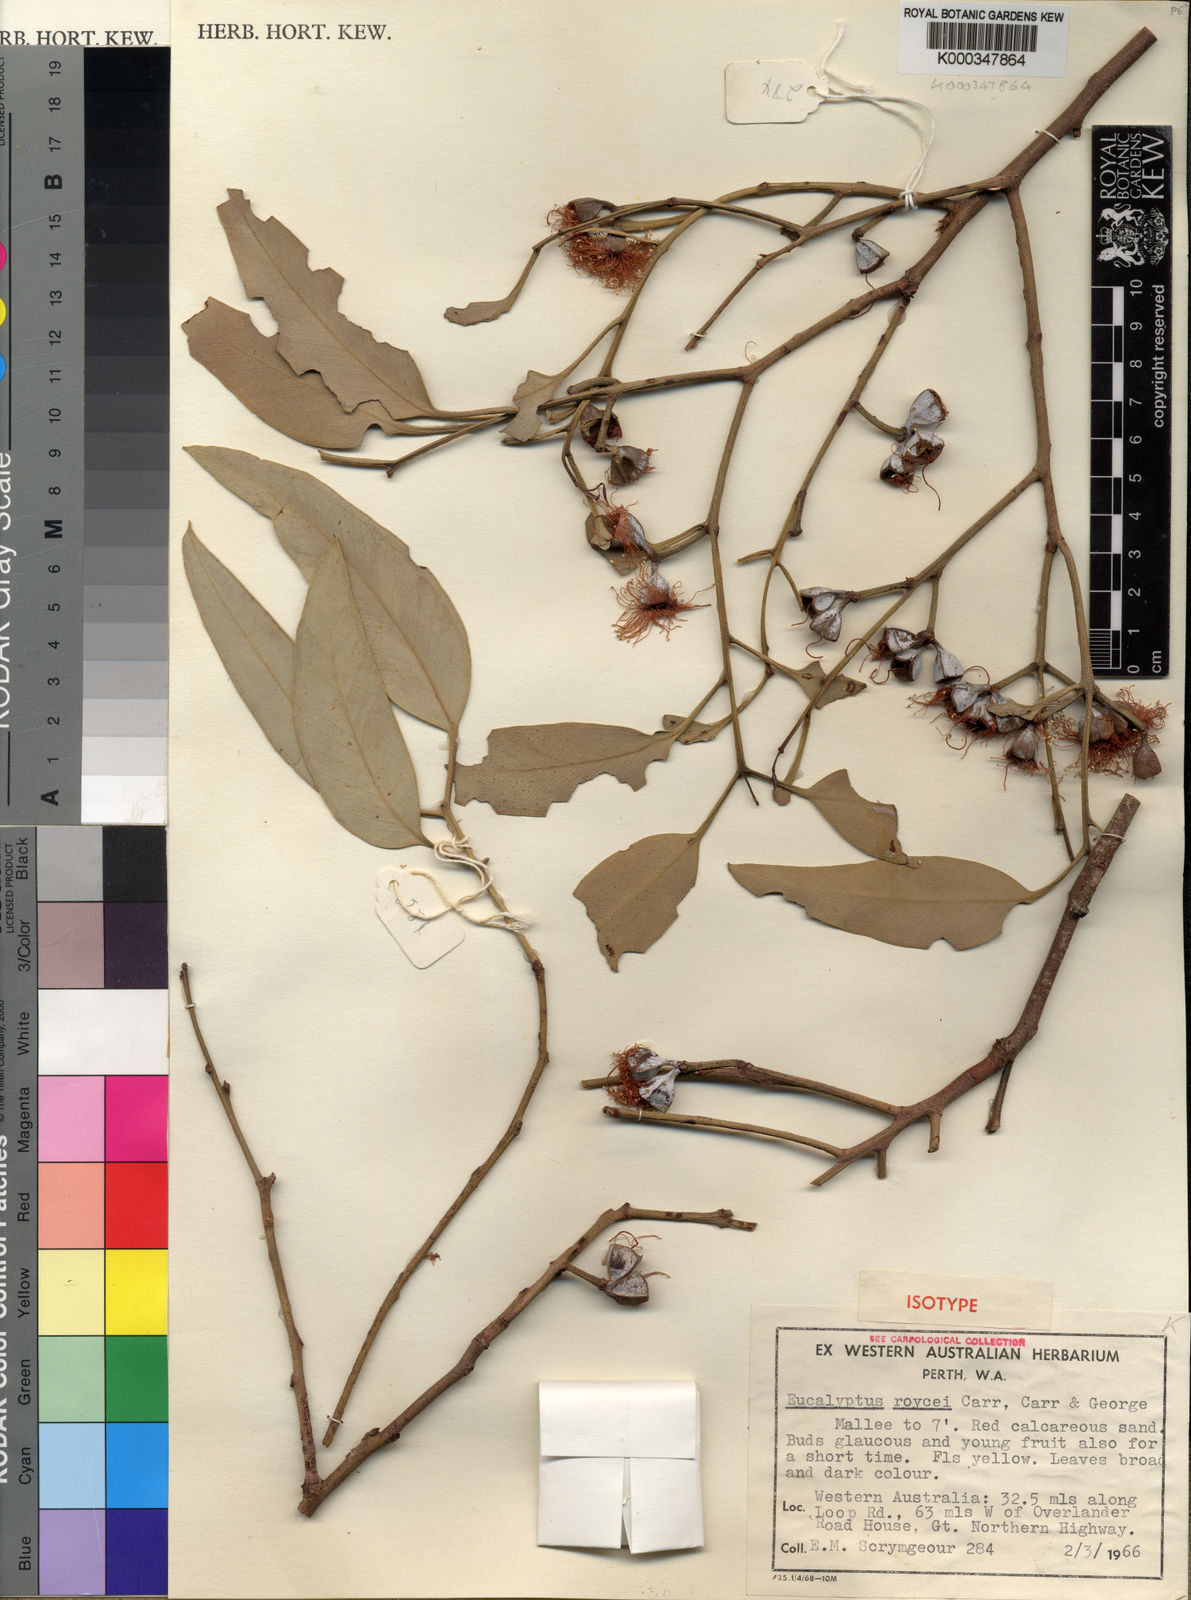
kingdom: Plantae
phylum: Tracheophyta
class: Magnoliopsida
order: Myrtales
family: Myrtaceae
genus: Eucalyptus
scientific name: Eucalyptus roycei
